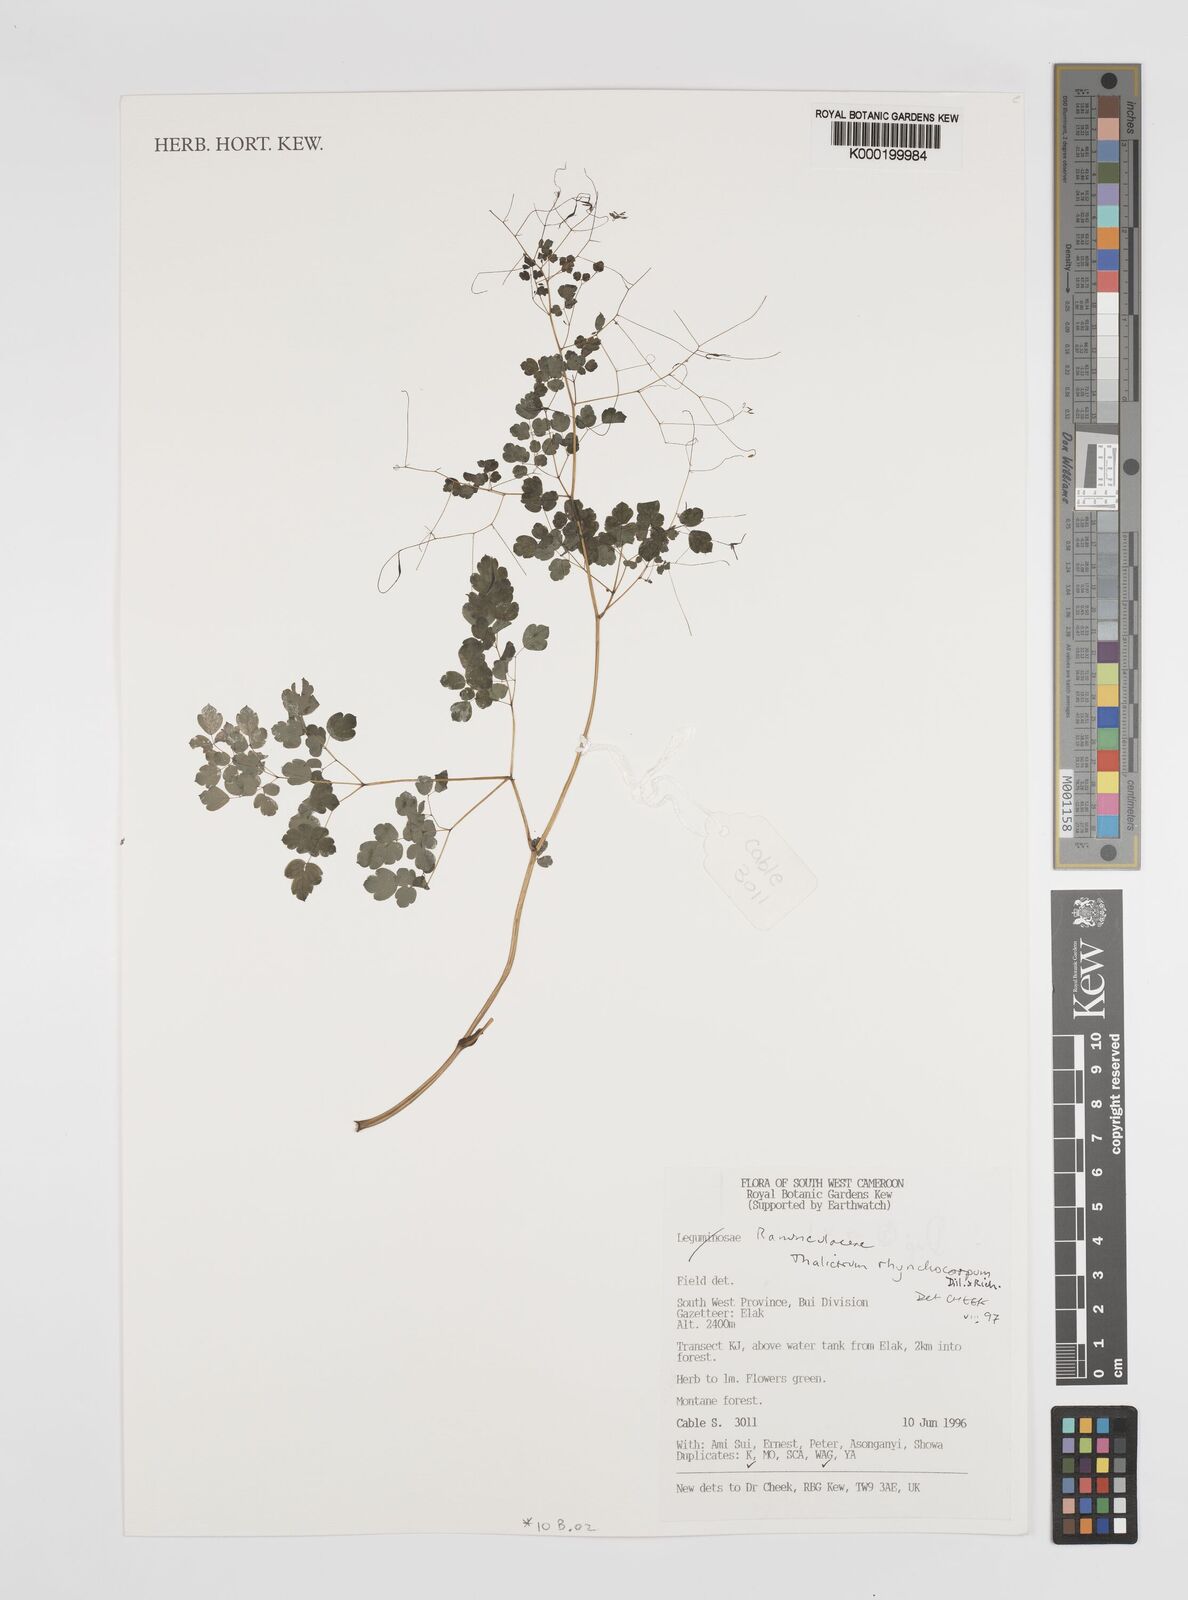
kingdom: Plantae
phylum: Tracheophyta
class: Magnoliopsida
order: Ranunculales
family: Ranunculaceae
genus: Thalictrum
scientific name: Thalictrum rhynchocarpum
